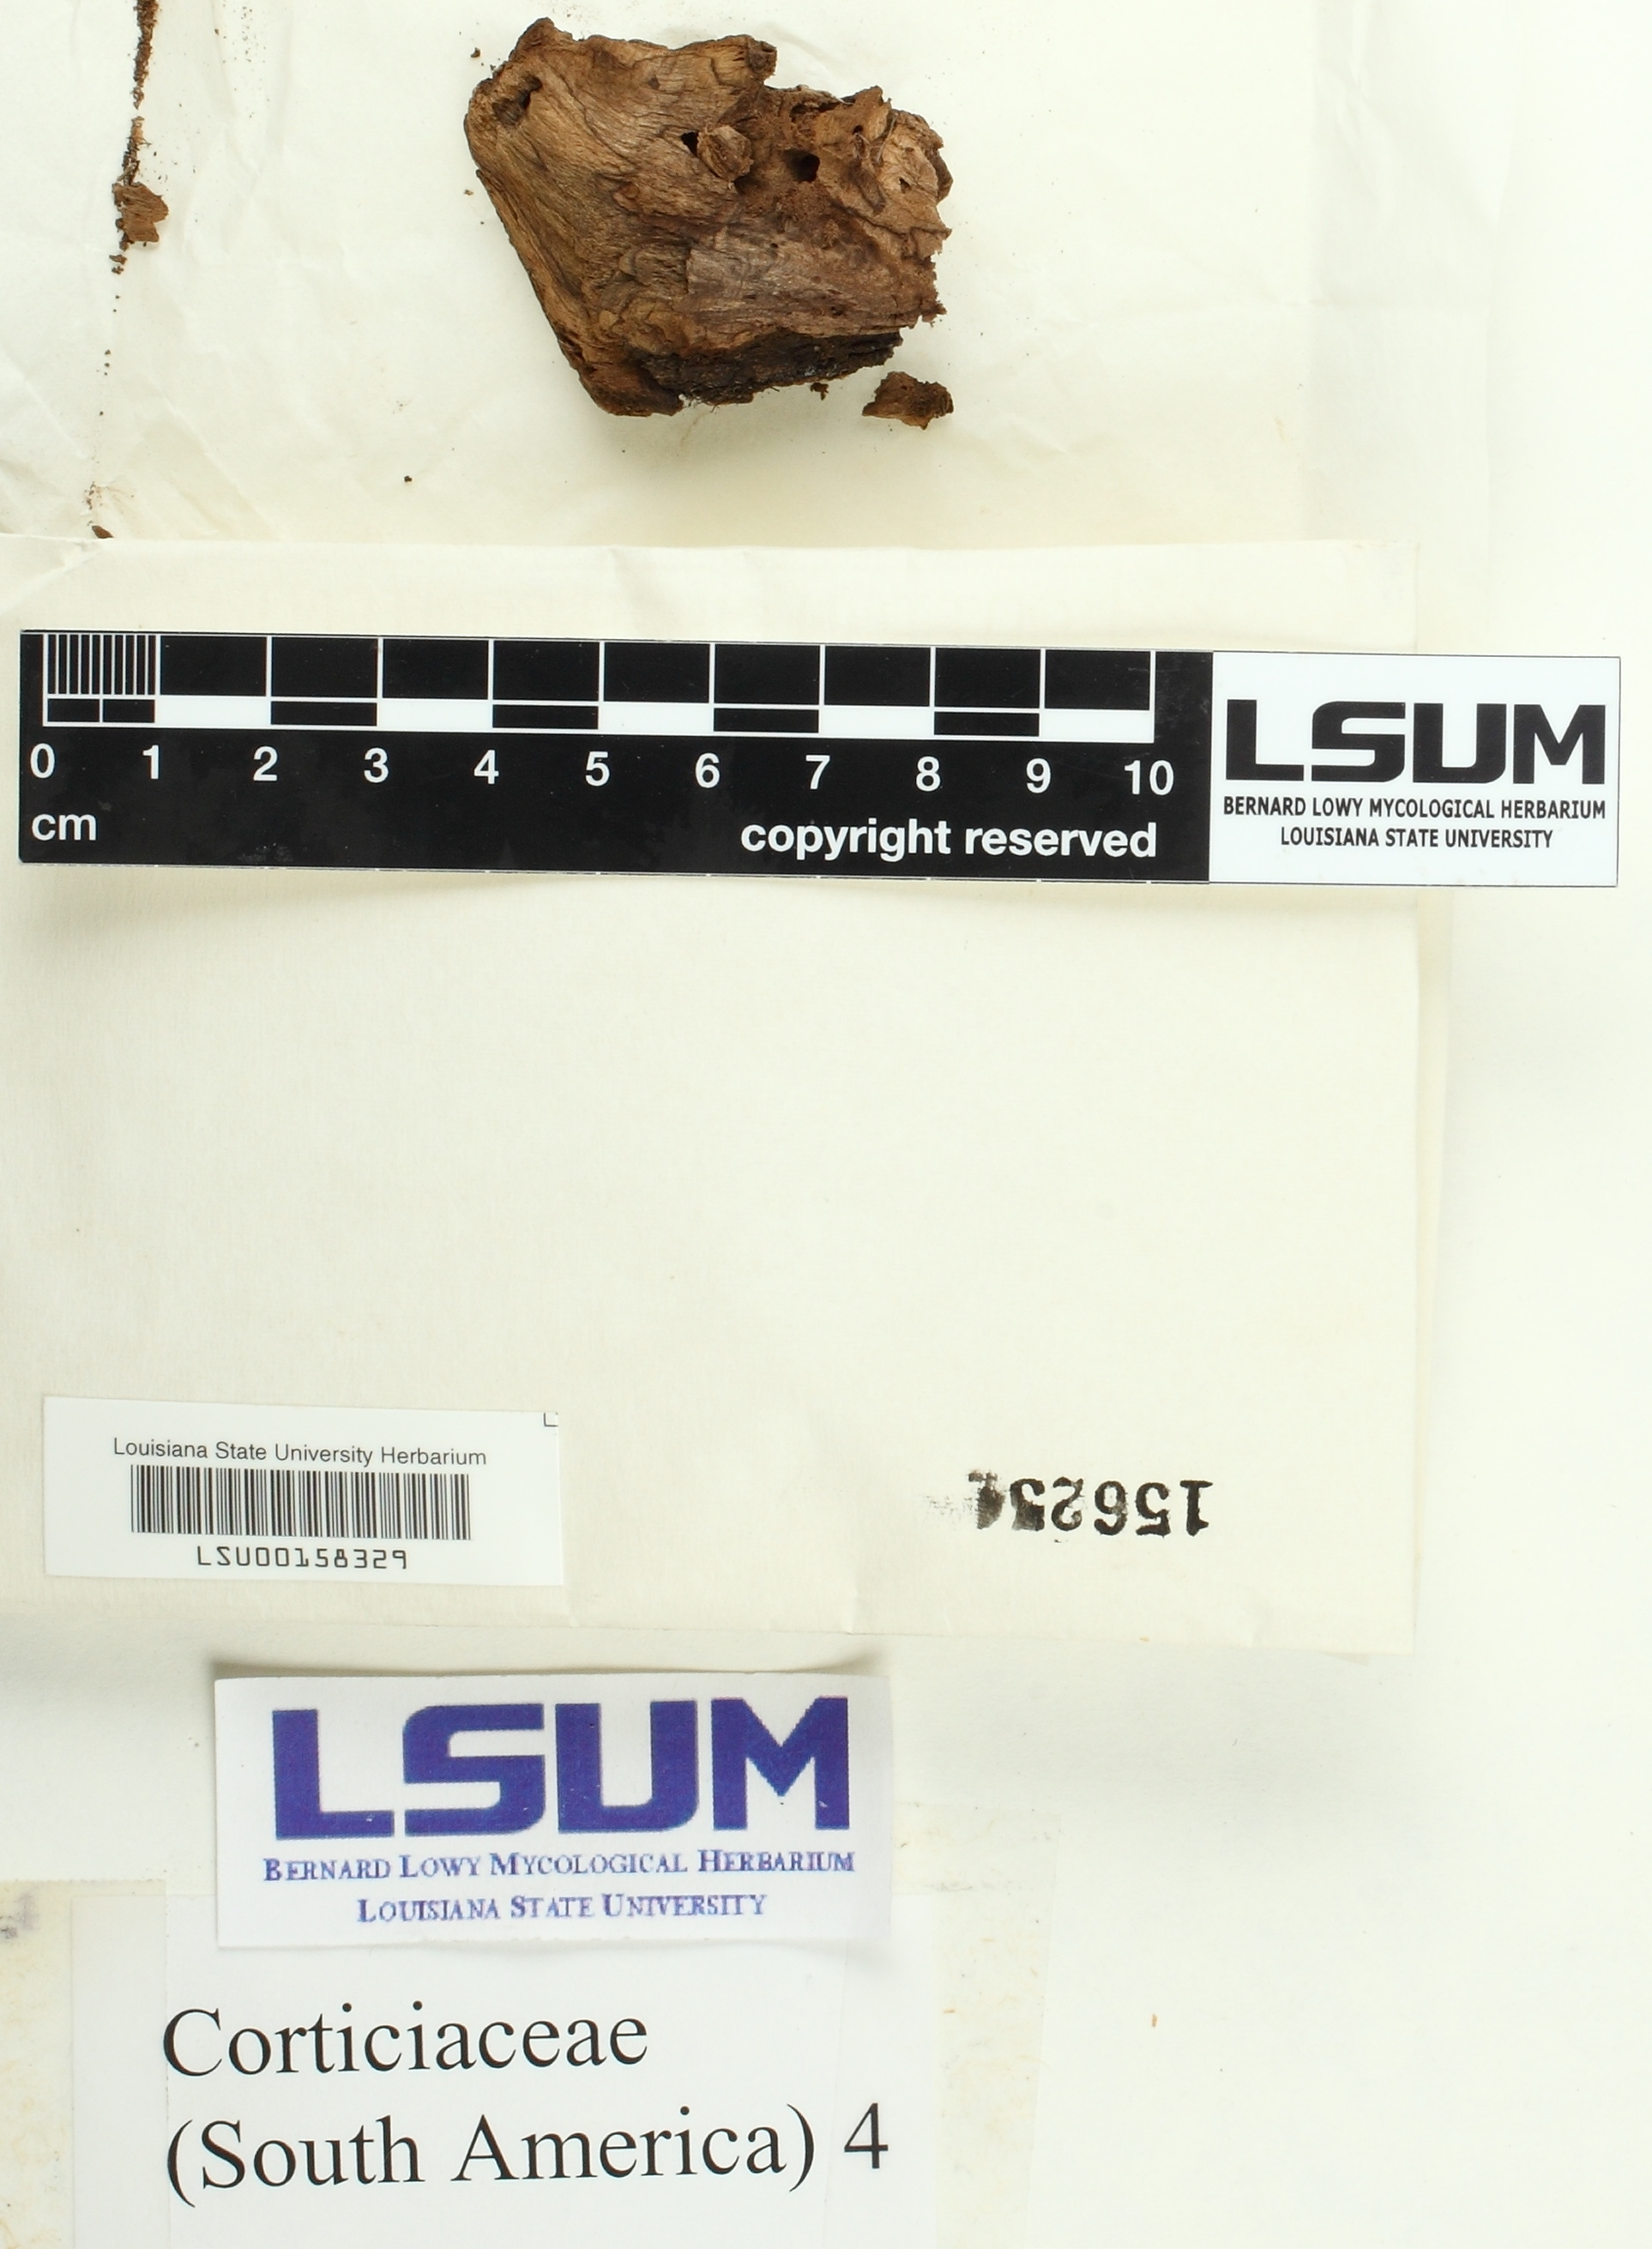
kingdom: Fungi
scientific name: Fungi
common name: Fungi
